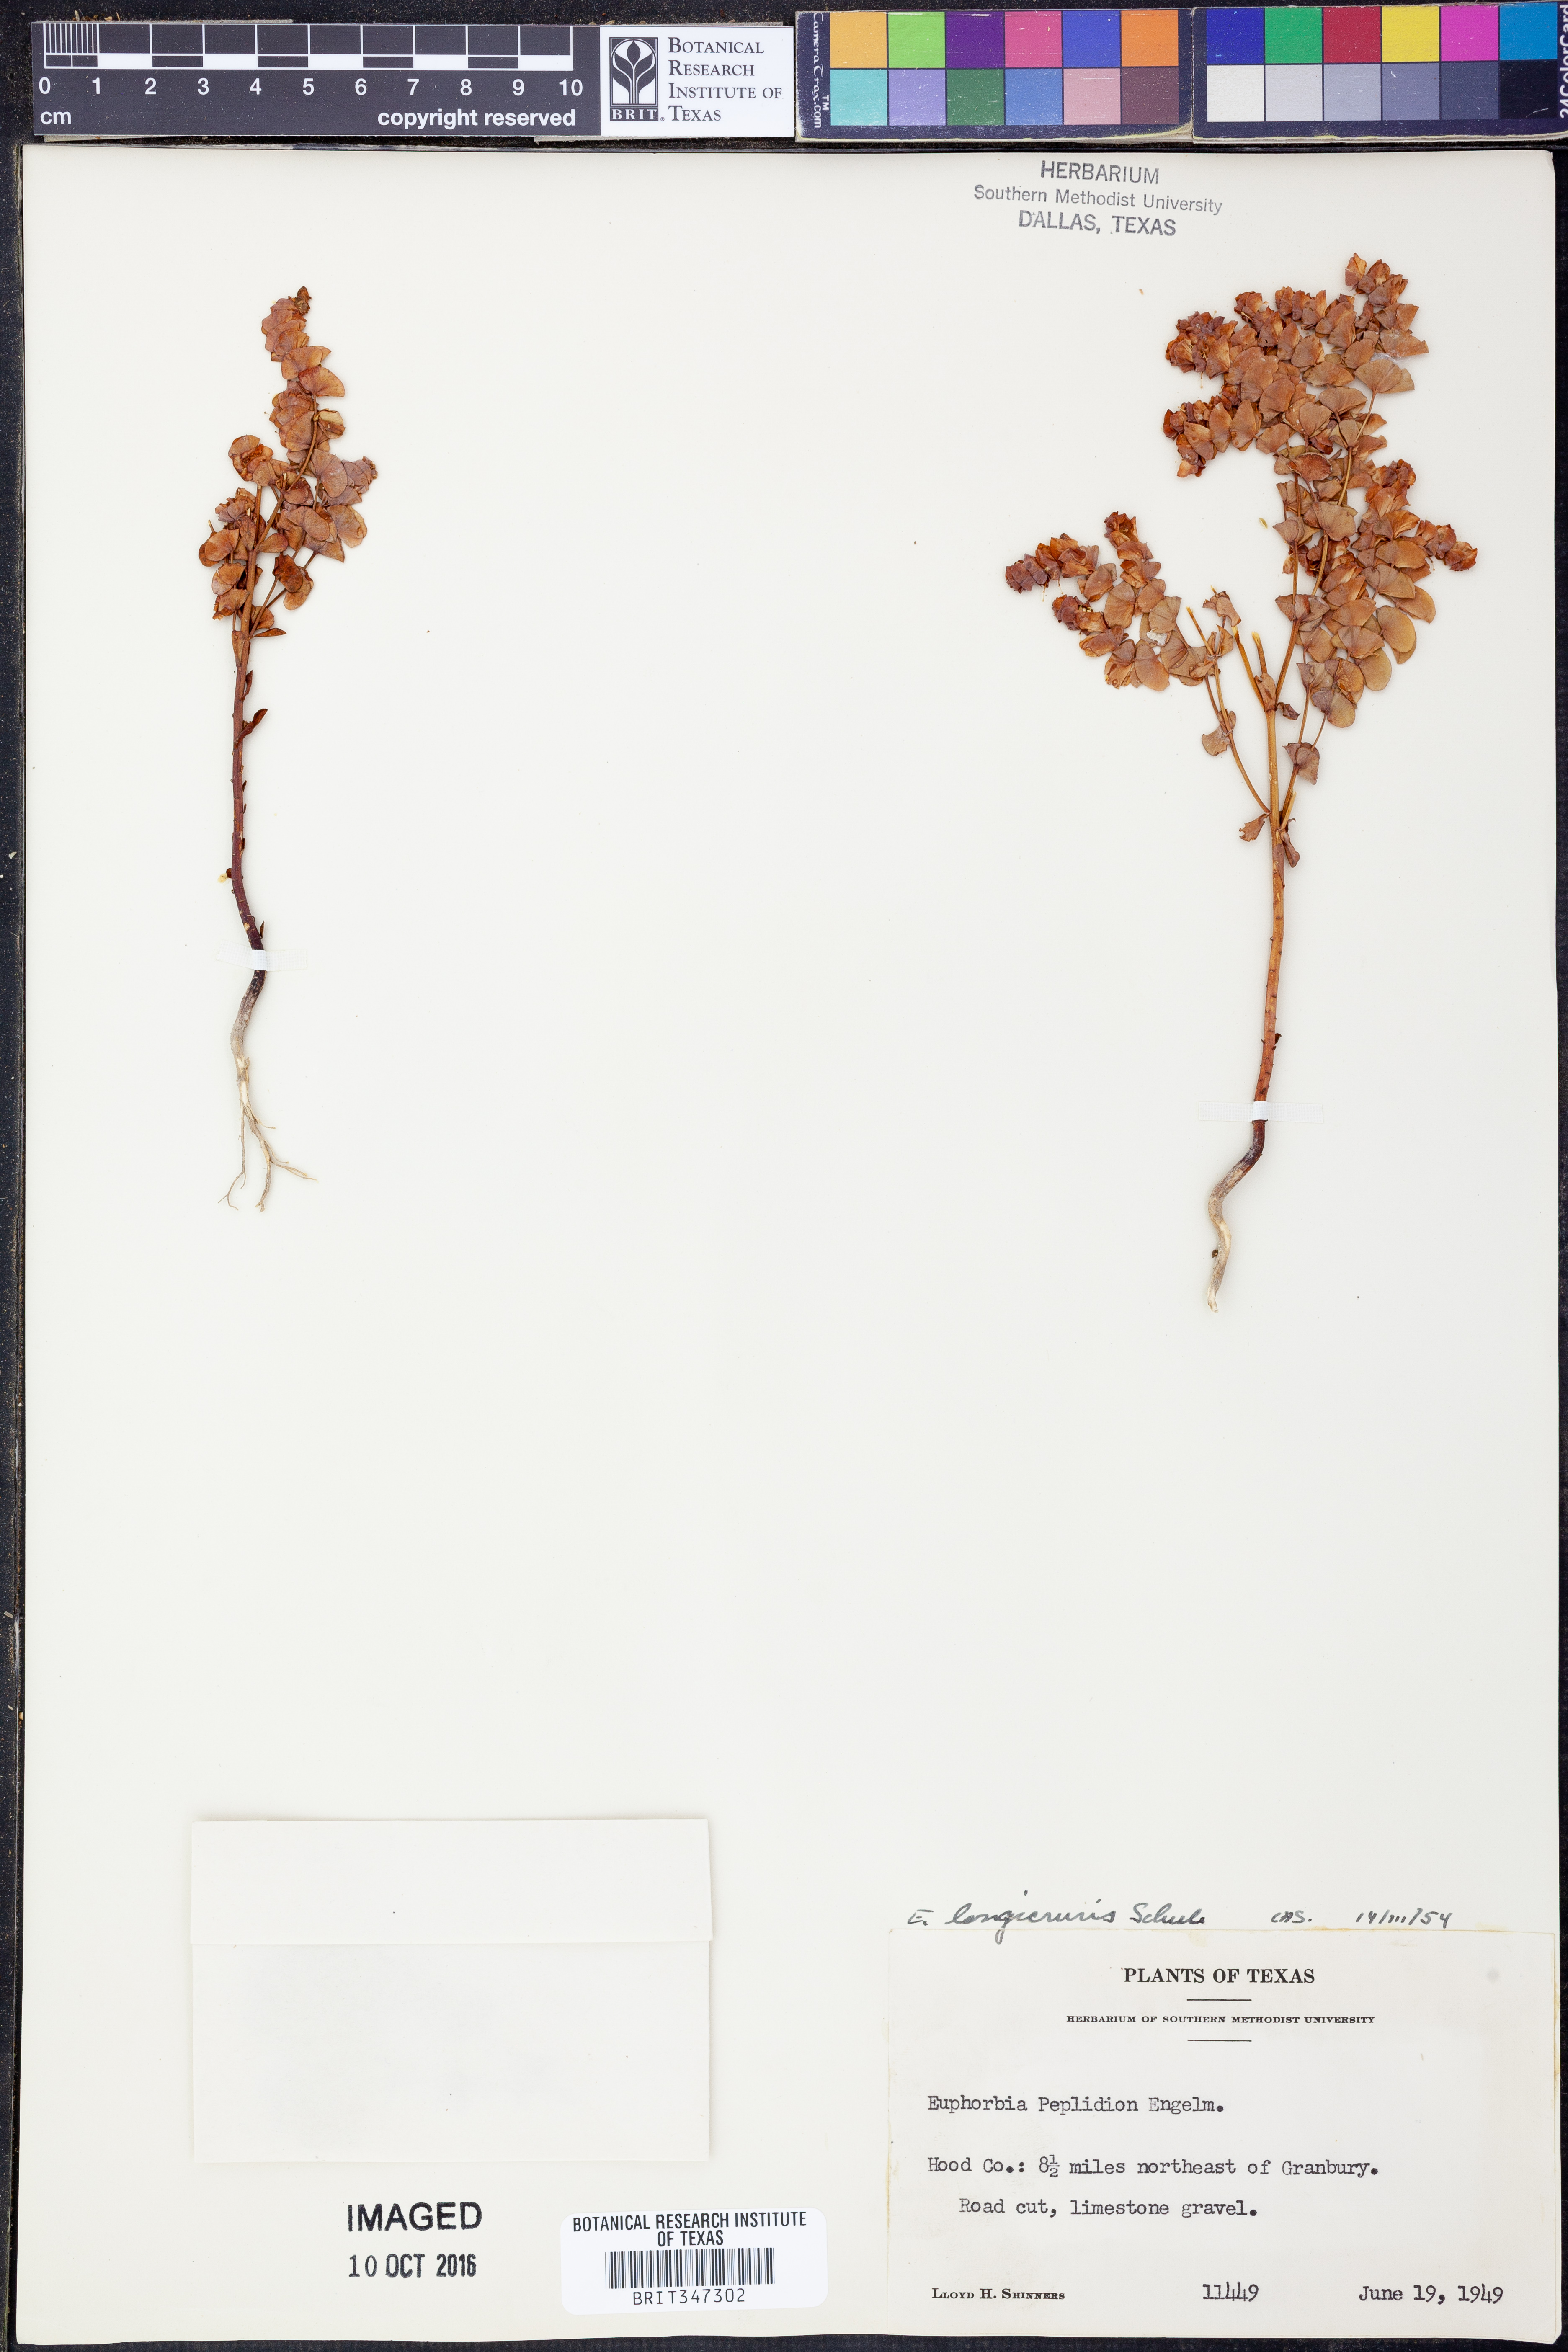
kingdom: Plantae
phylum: Tracheophyta
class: Magnoliopsida
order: Malpighiales
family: Euphorbiaceae
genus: Euphorbia
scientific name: Euphorbia longicruris
